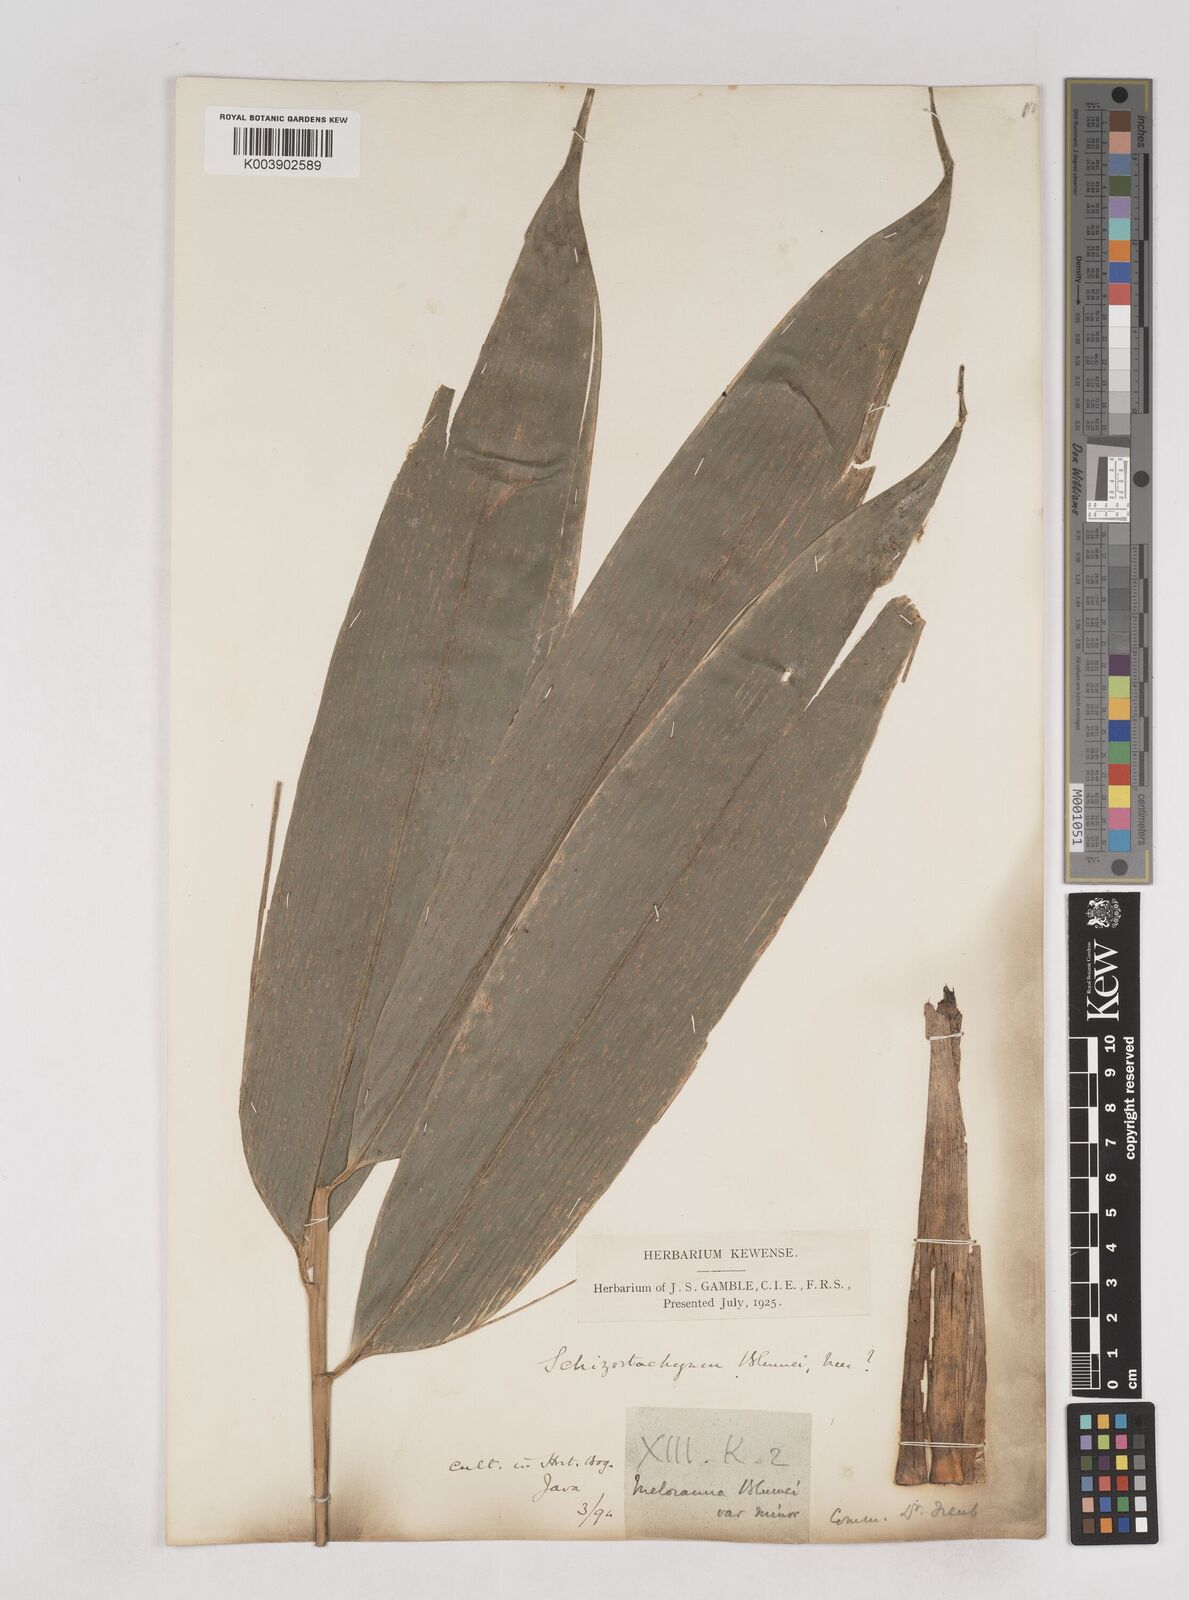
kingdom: Plantae
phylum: Tracheophyta
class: Liliopsida
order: Poales
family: Poaceae
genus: Schizostachyum
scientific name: Schizostachyum
